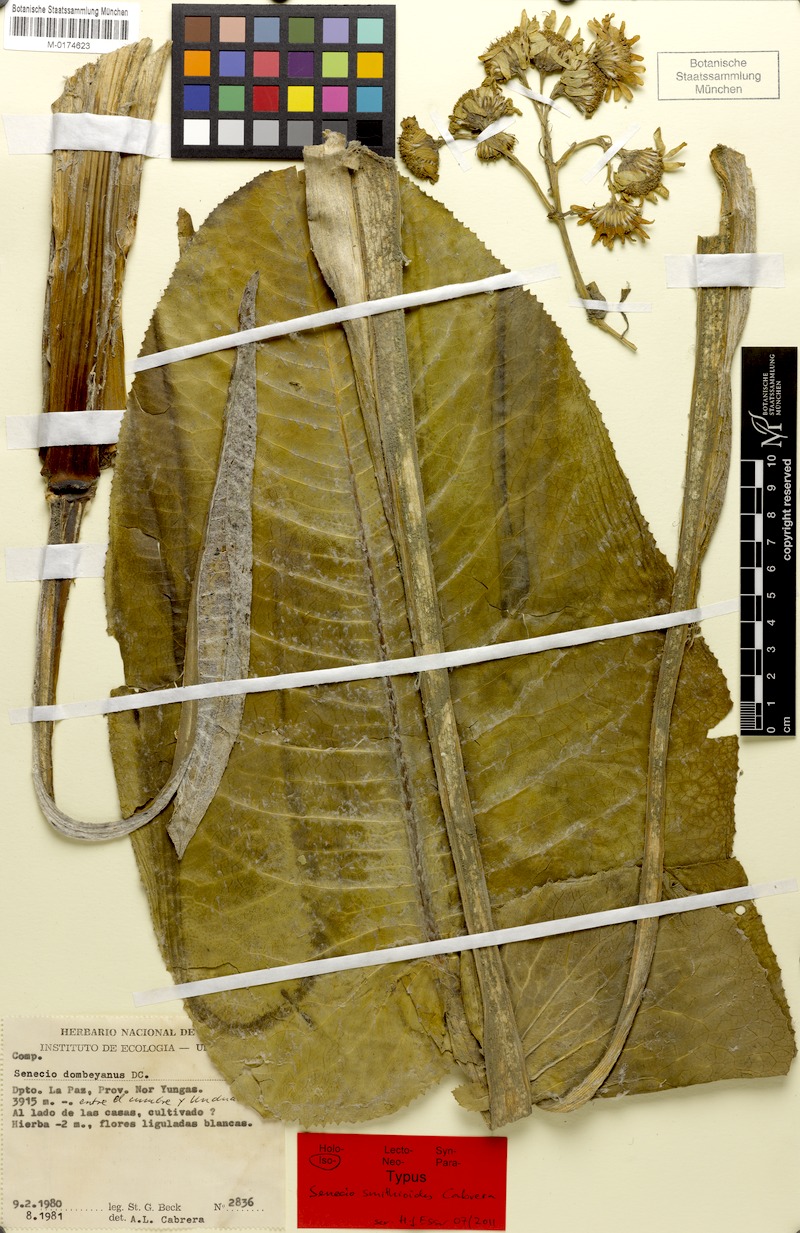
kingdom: Plantae
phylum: Tracheophyta
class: Magnoliopsida
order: Asterales
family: Asteraceae
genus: Senecio
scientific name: Senecio smithianus
